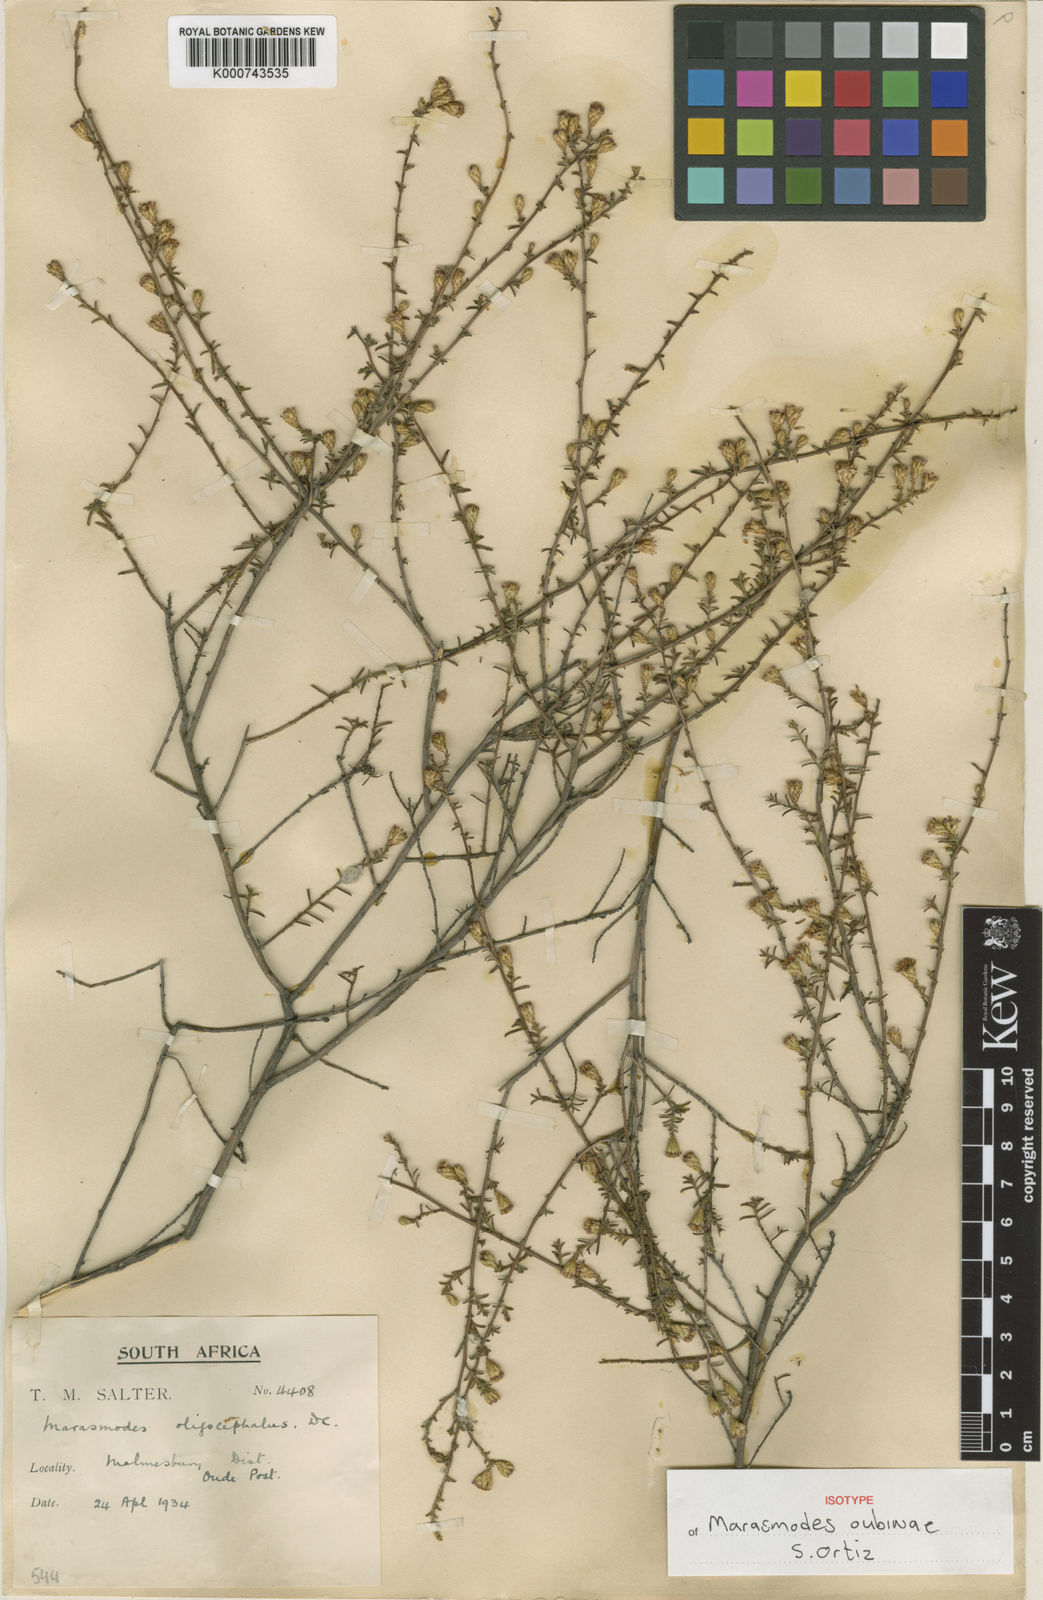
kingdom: Plantae
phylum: Tracheophyta
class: Magnoliopsida
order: Asterales
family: Asteraceae
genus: Marasmodes
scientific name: Marasmodes oubinae
